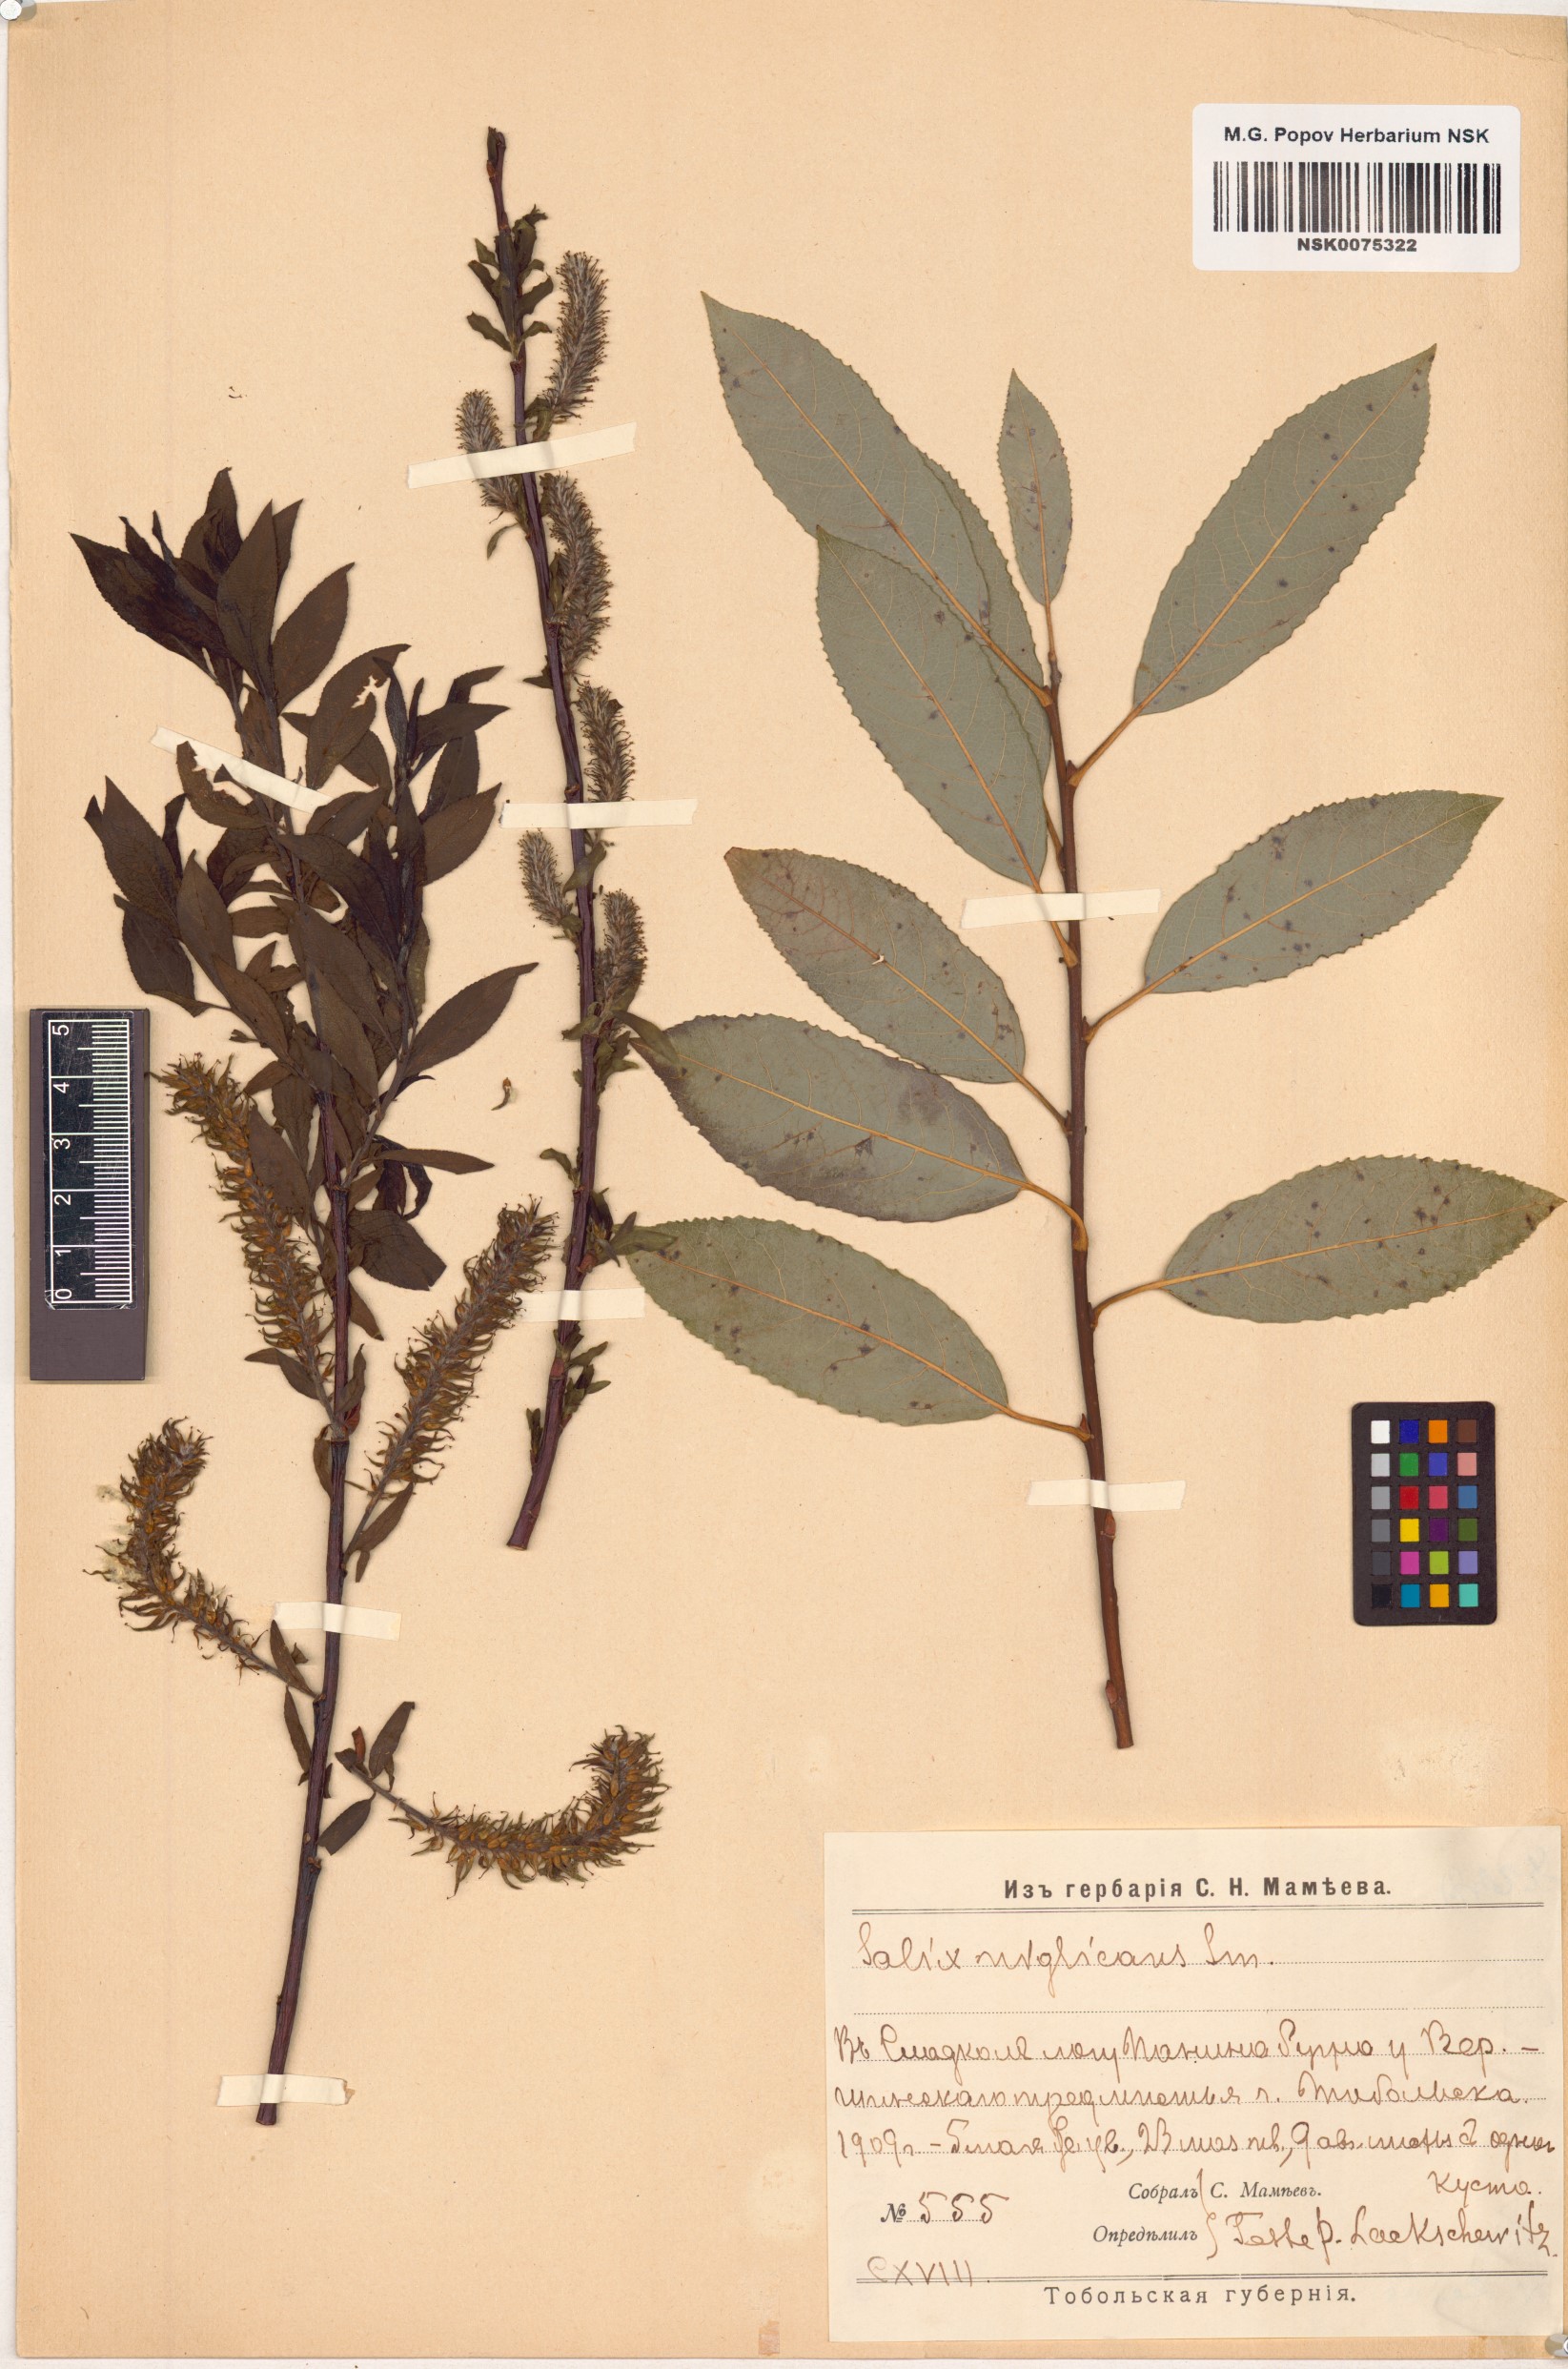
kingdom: Plantae
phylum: Tracheophyta
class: Magnoliopsida
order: Malpighiales
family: Salicaceae
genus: Salix
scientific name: Salix myrsinifolia
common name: Dark-leaved willow
